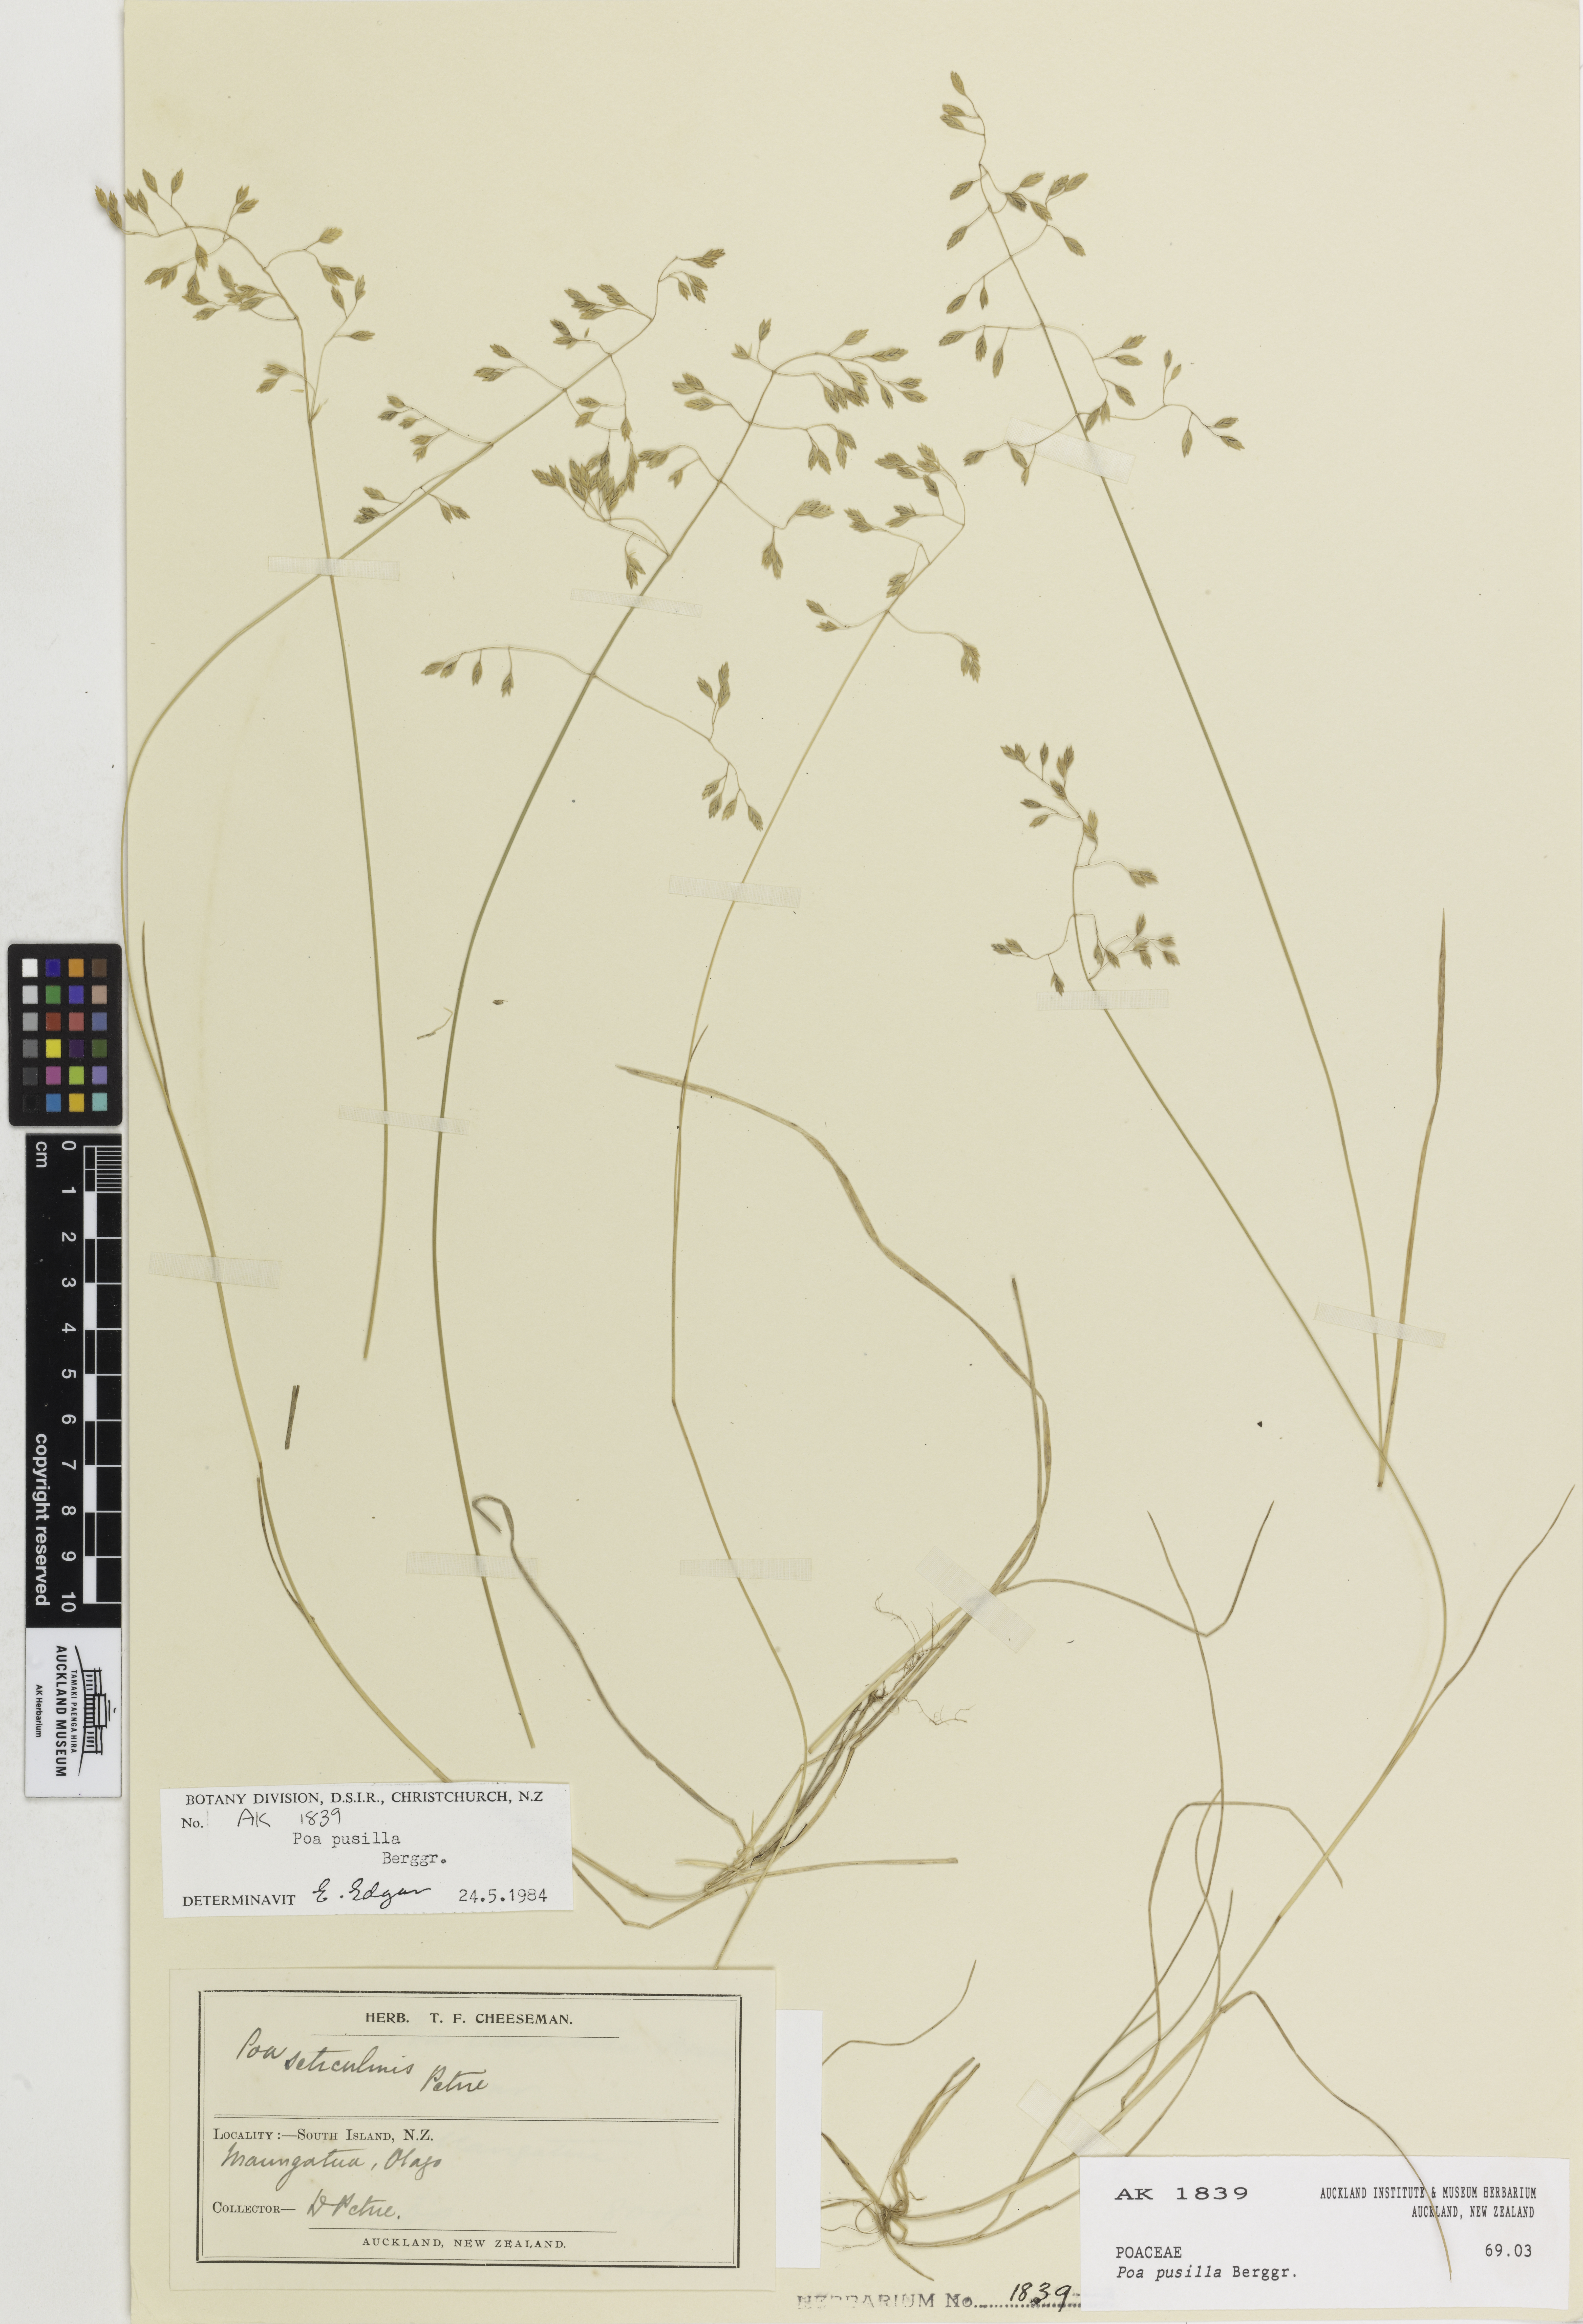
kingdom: Plantae
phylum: Tracheophyta
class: Liliopsida
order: Poales
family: Poaceae
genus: Poa
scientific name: Poa pusilla
